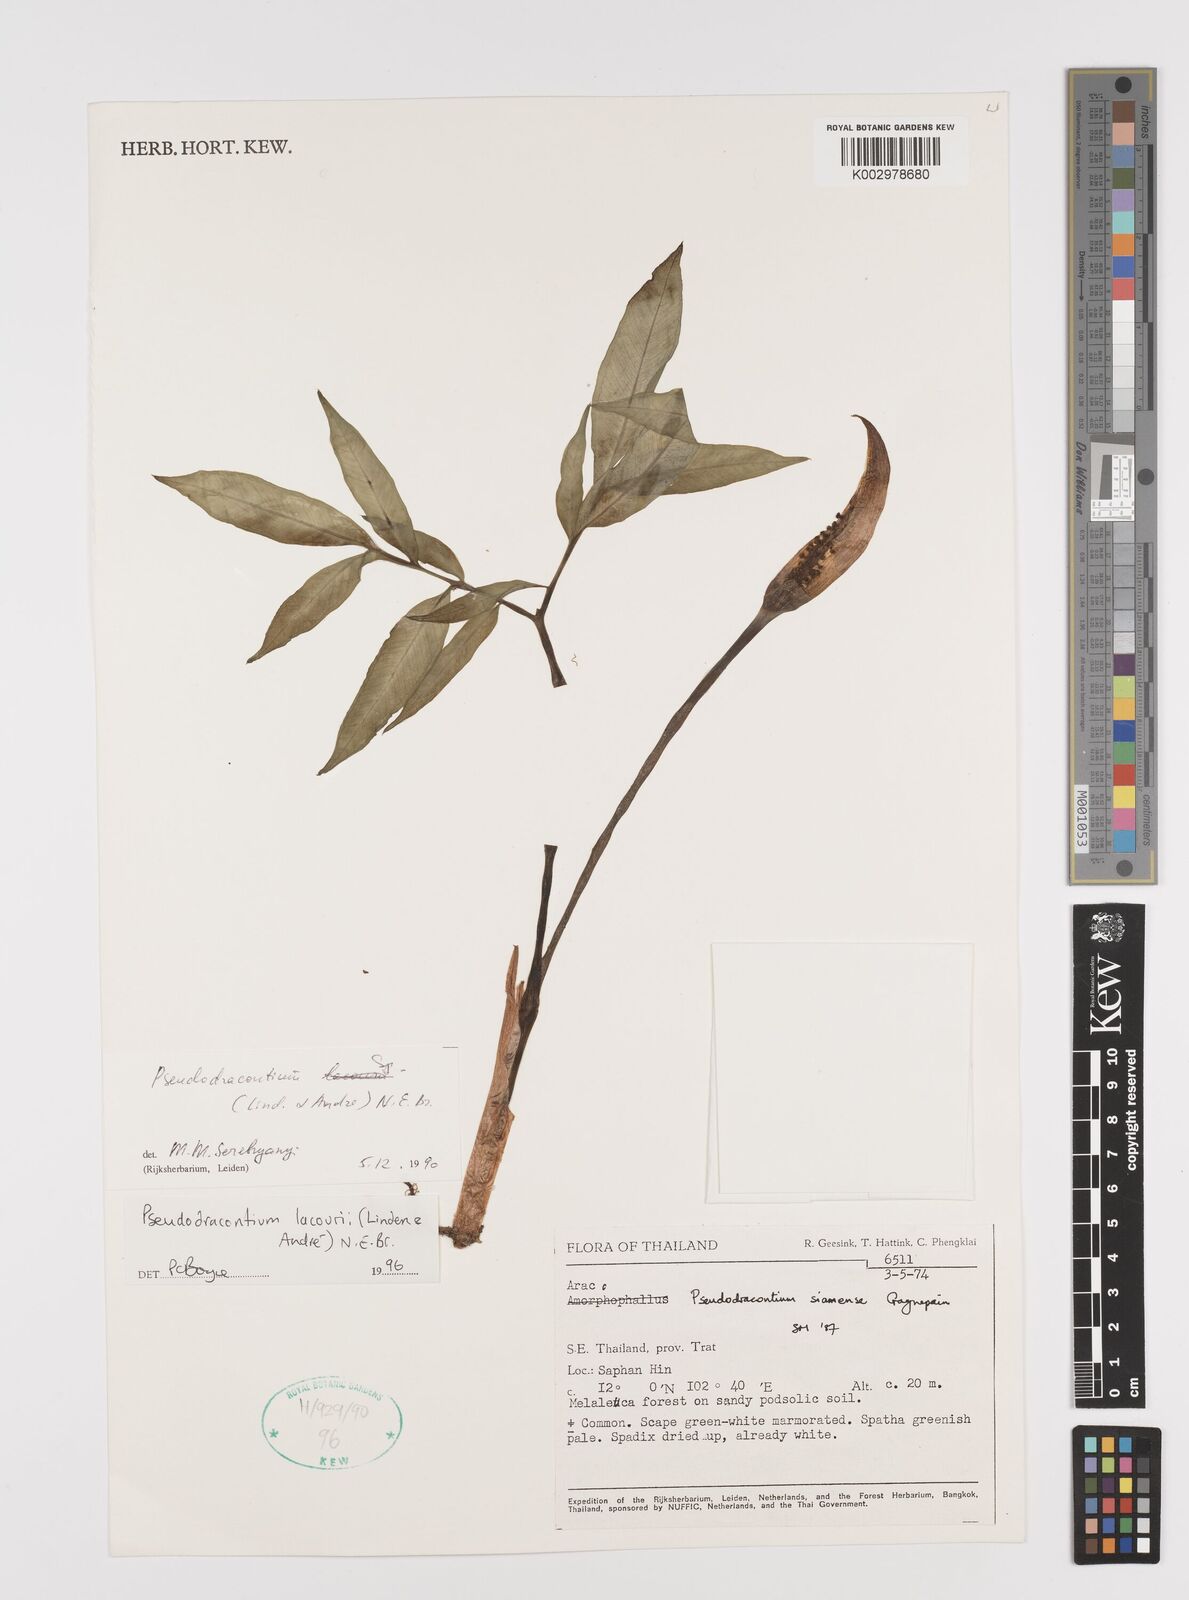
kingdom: Plantae
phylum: Tracheophyta
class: Liliopsida
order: Alismatales
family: Araceae
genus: Amorphophallus
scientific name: Amorphophallus lacourii
